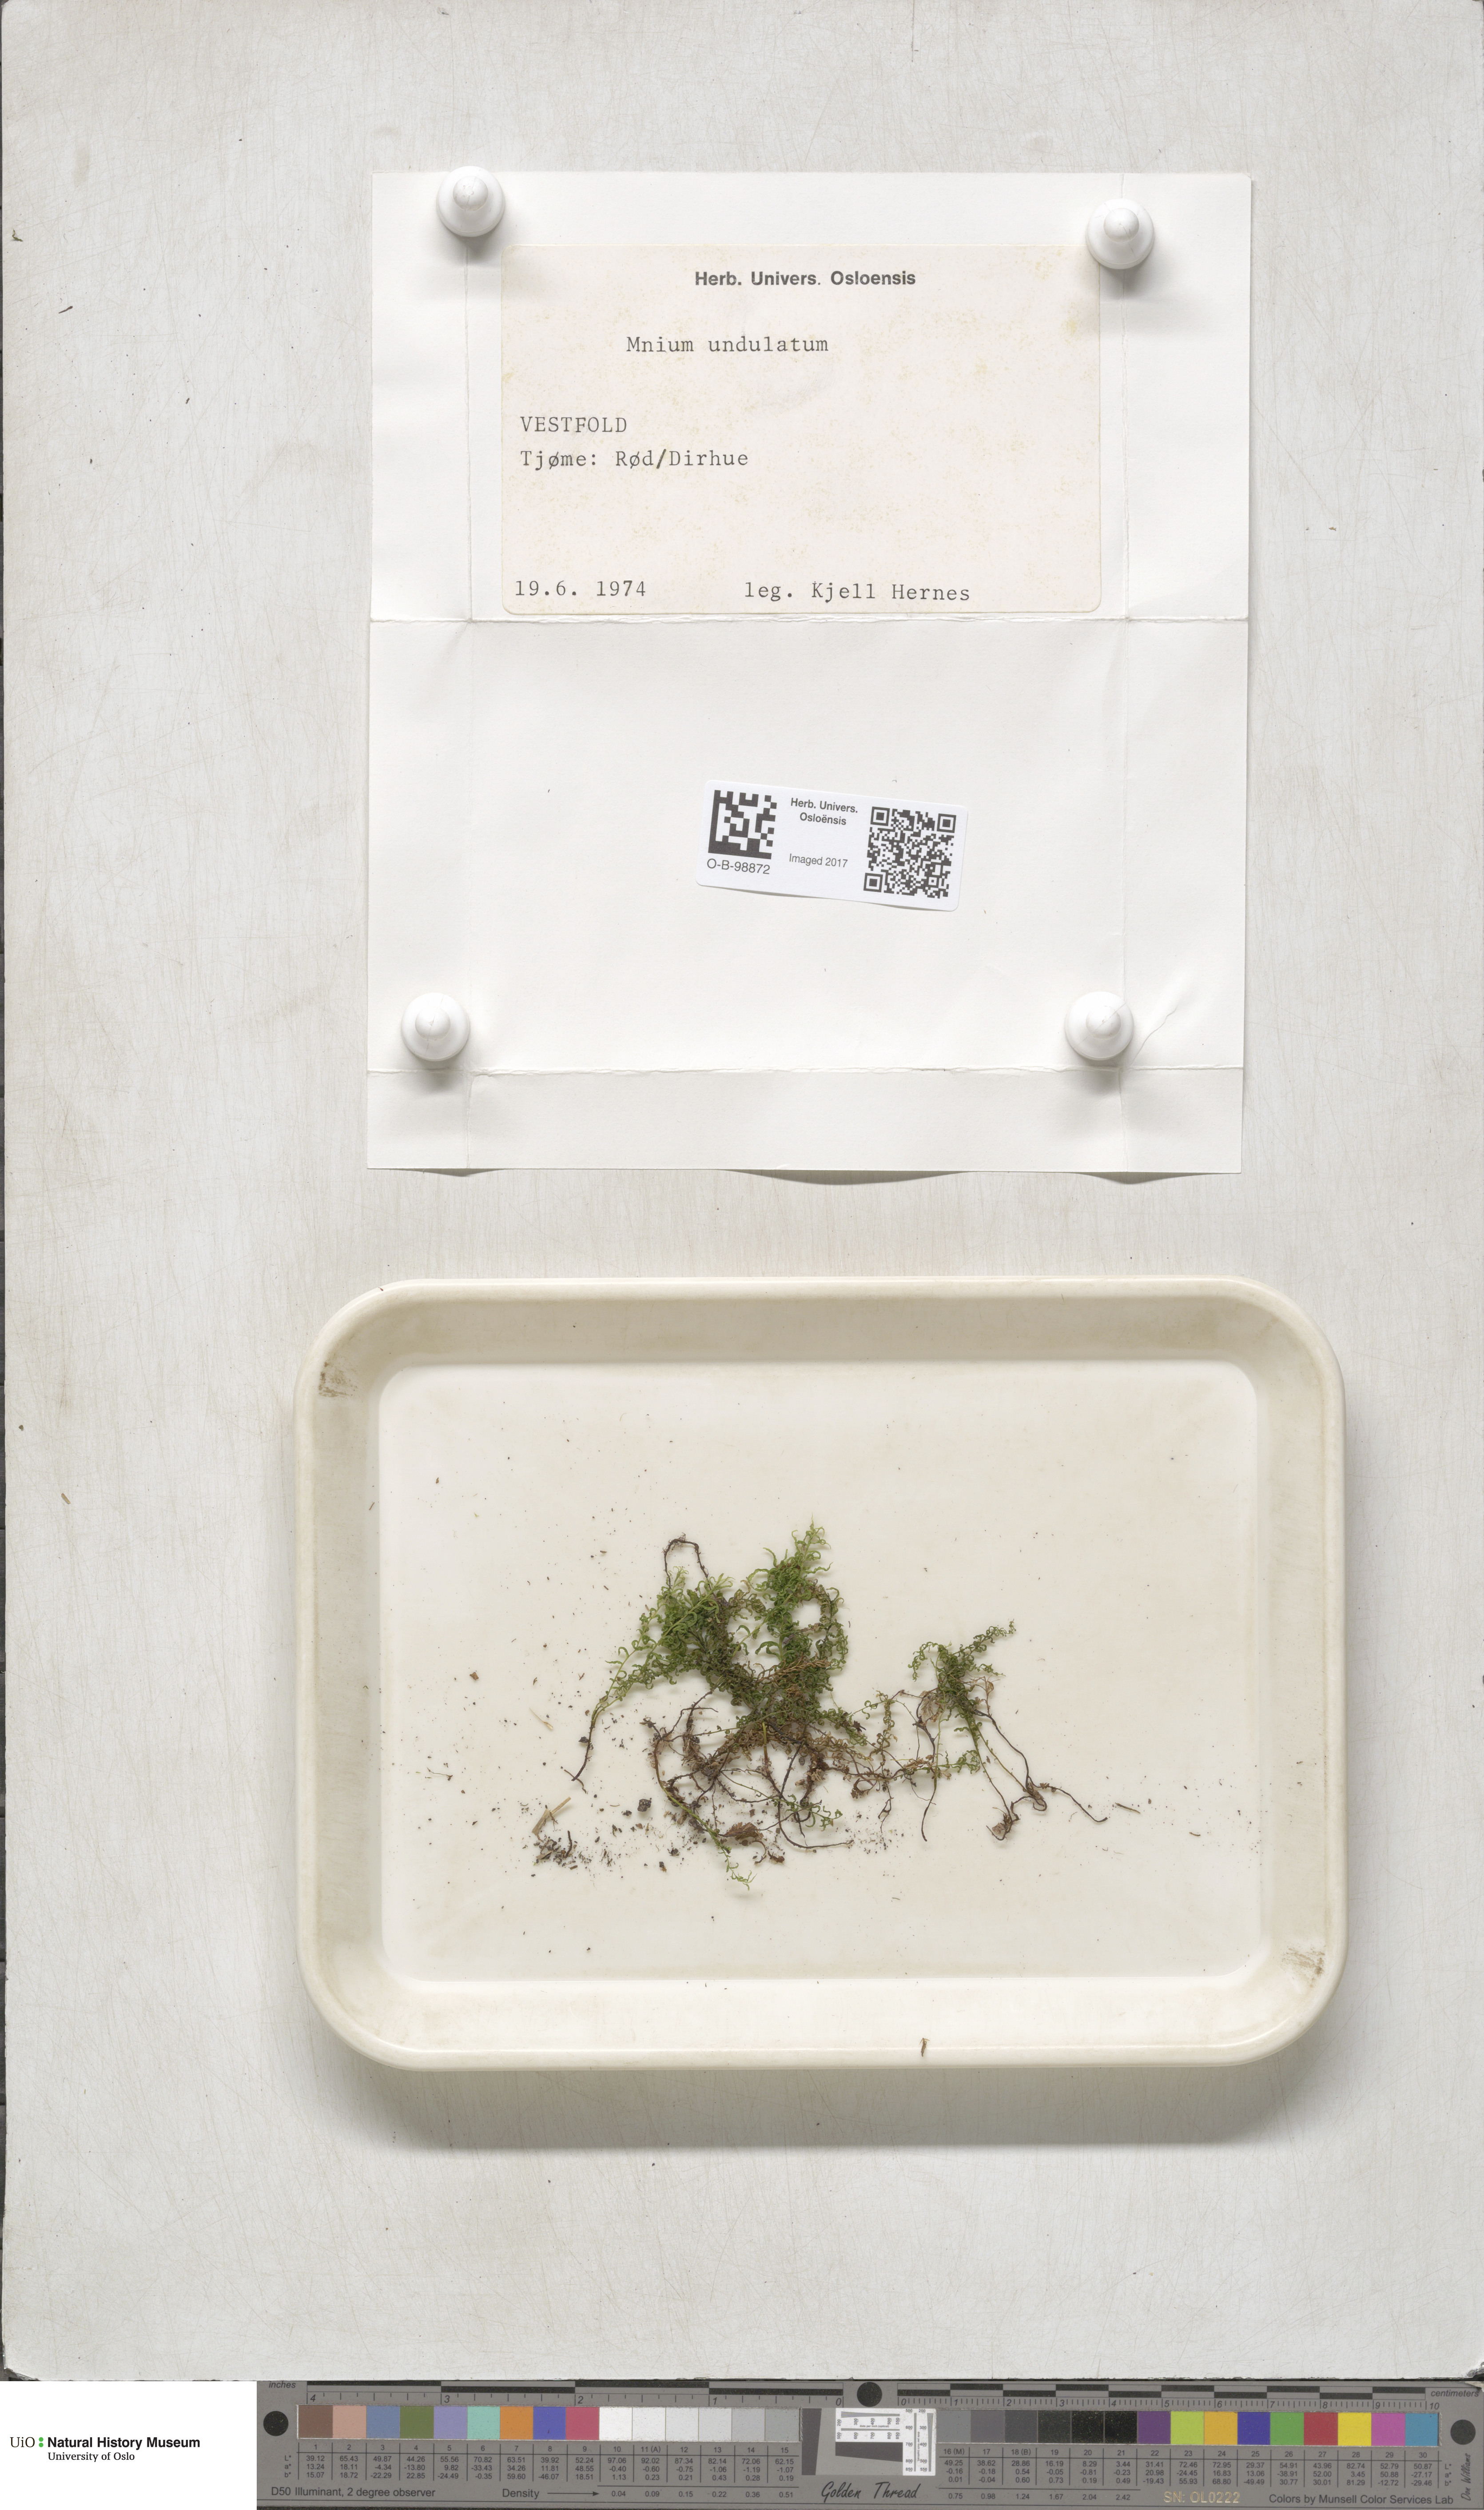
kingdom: Plantae
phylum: Bryophyta
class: Bryopsida
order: Bryales
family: Mniaceae
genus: Plagiomnium
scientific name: Plagiomnium undulatum
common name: Hart's-tongue thyme-moss
